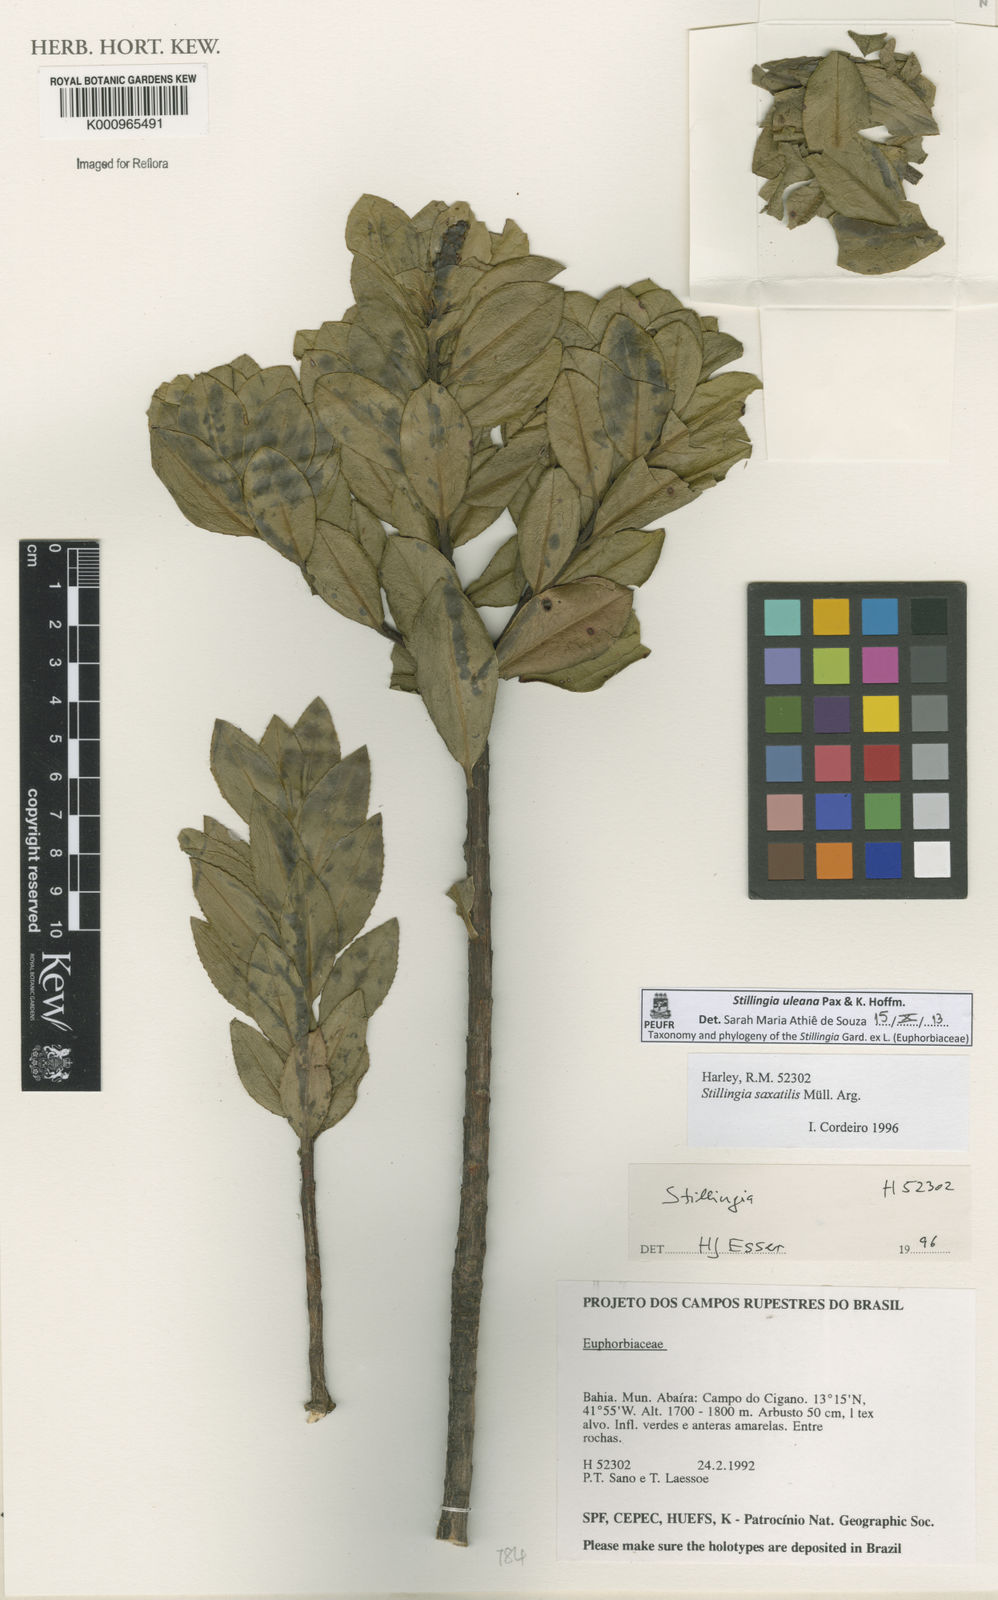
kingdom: Plantae
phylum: Tracheophyta
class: Magnoliopsida
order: Malpighiales
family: Euphorbiaceae
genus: Stillingia
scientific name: Stillingia uleana
